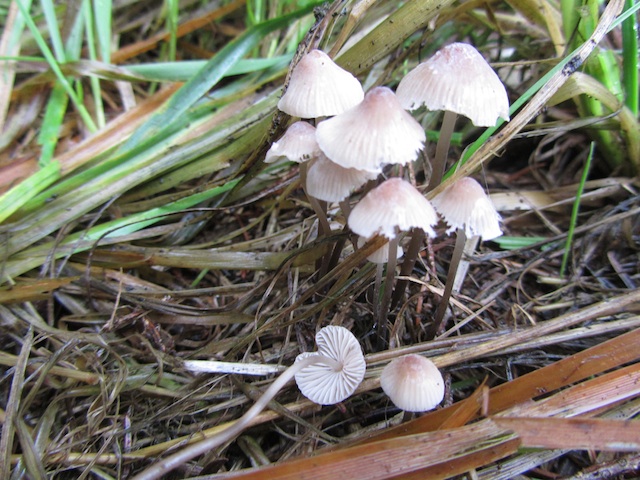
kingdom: Fungi
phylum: Basidiomycota
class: Agaricomycetes
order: Agaricales
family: Mycenaceae
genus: Mycena
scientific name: Mycena metata
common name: rødlig huesvamp
